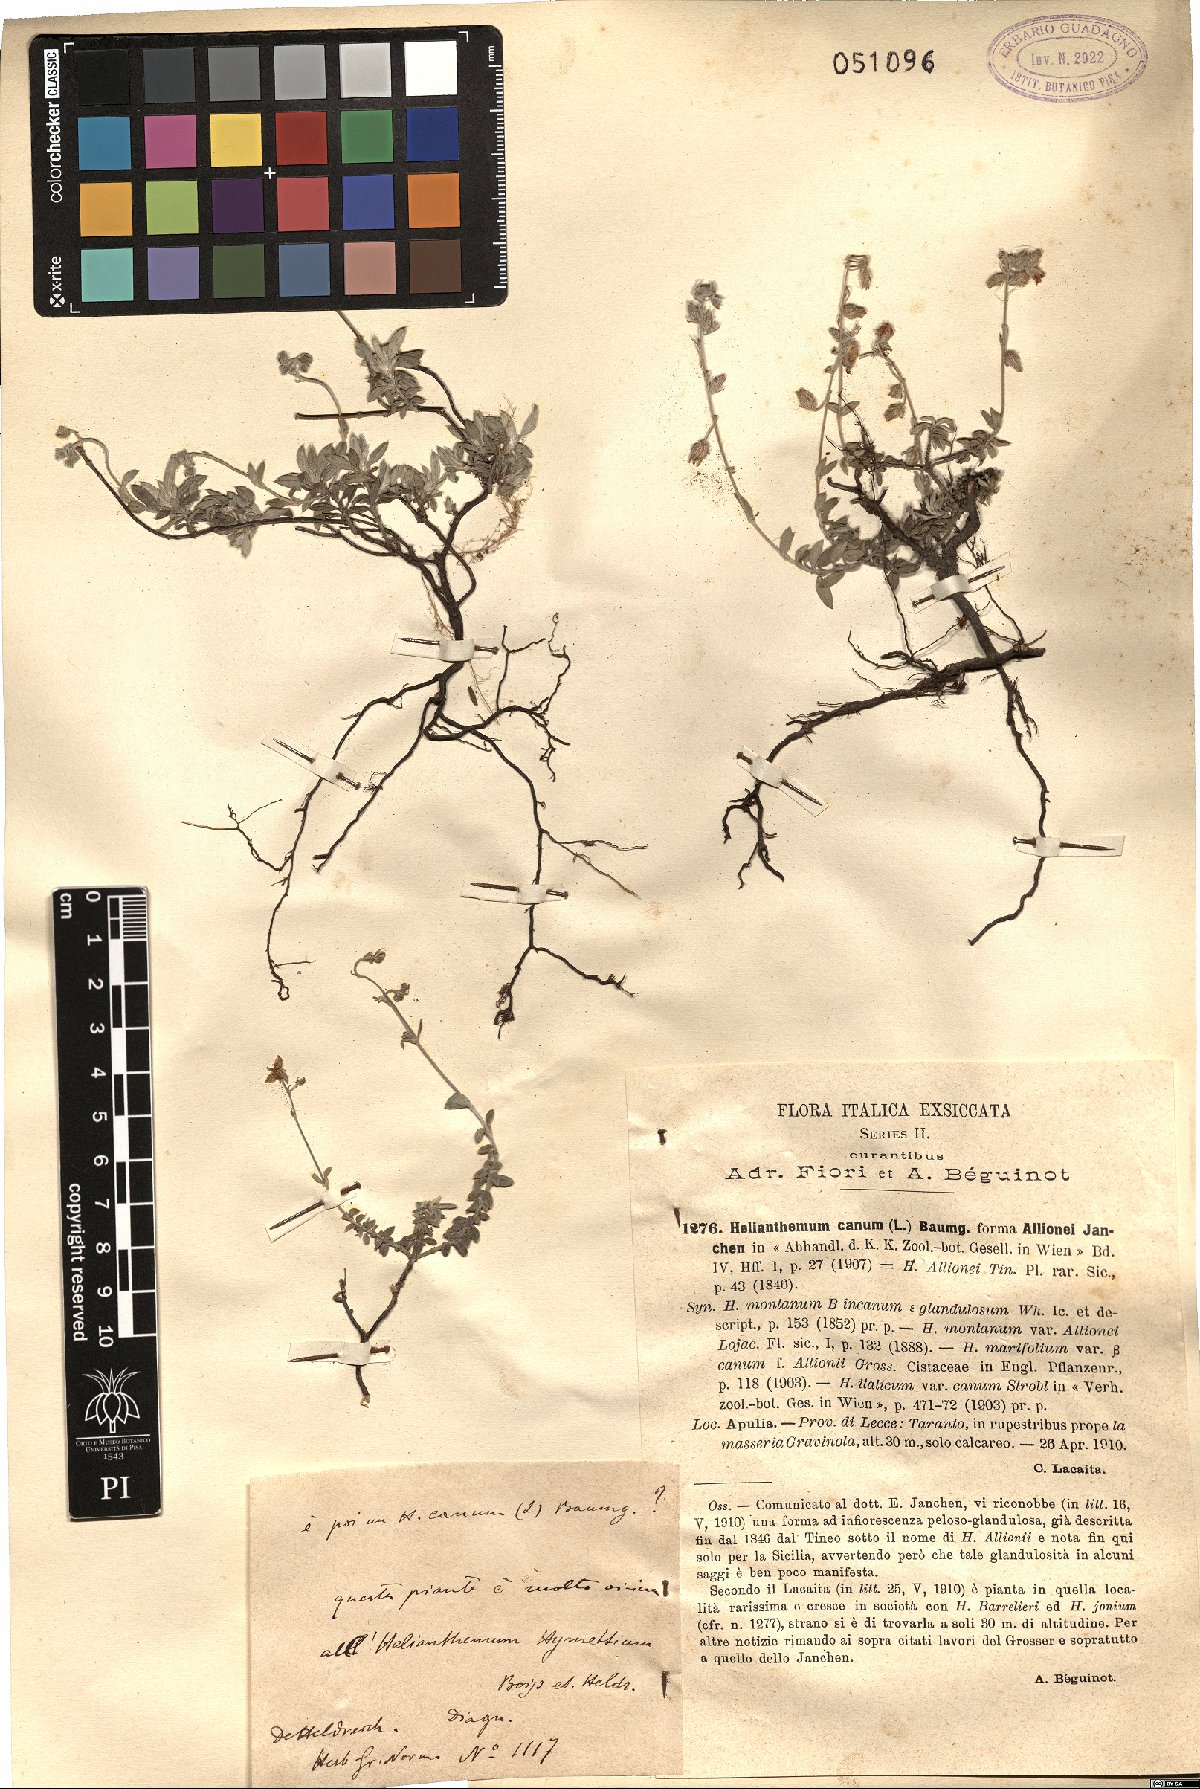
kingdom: Plantae
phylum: Tracheophyta
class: Magnoliopsida
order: Malvales
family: Cistaceae
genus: Helianthemum
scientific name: Helianthemum canum
